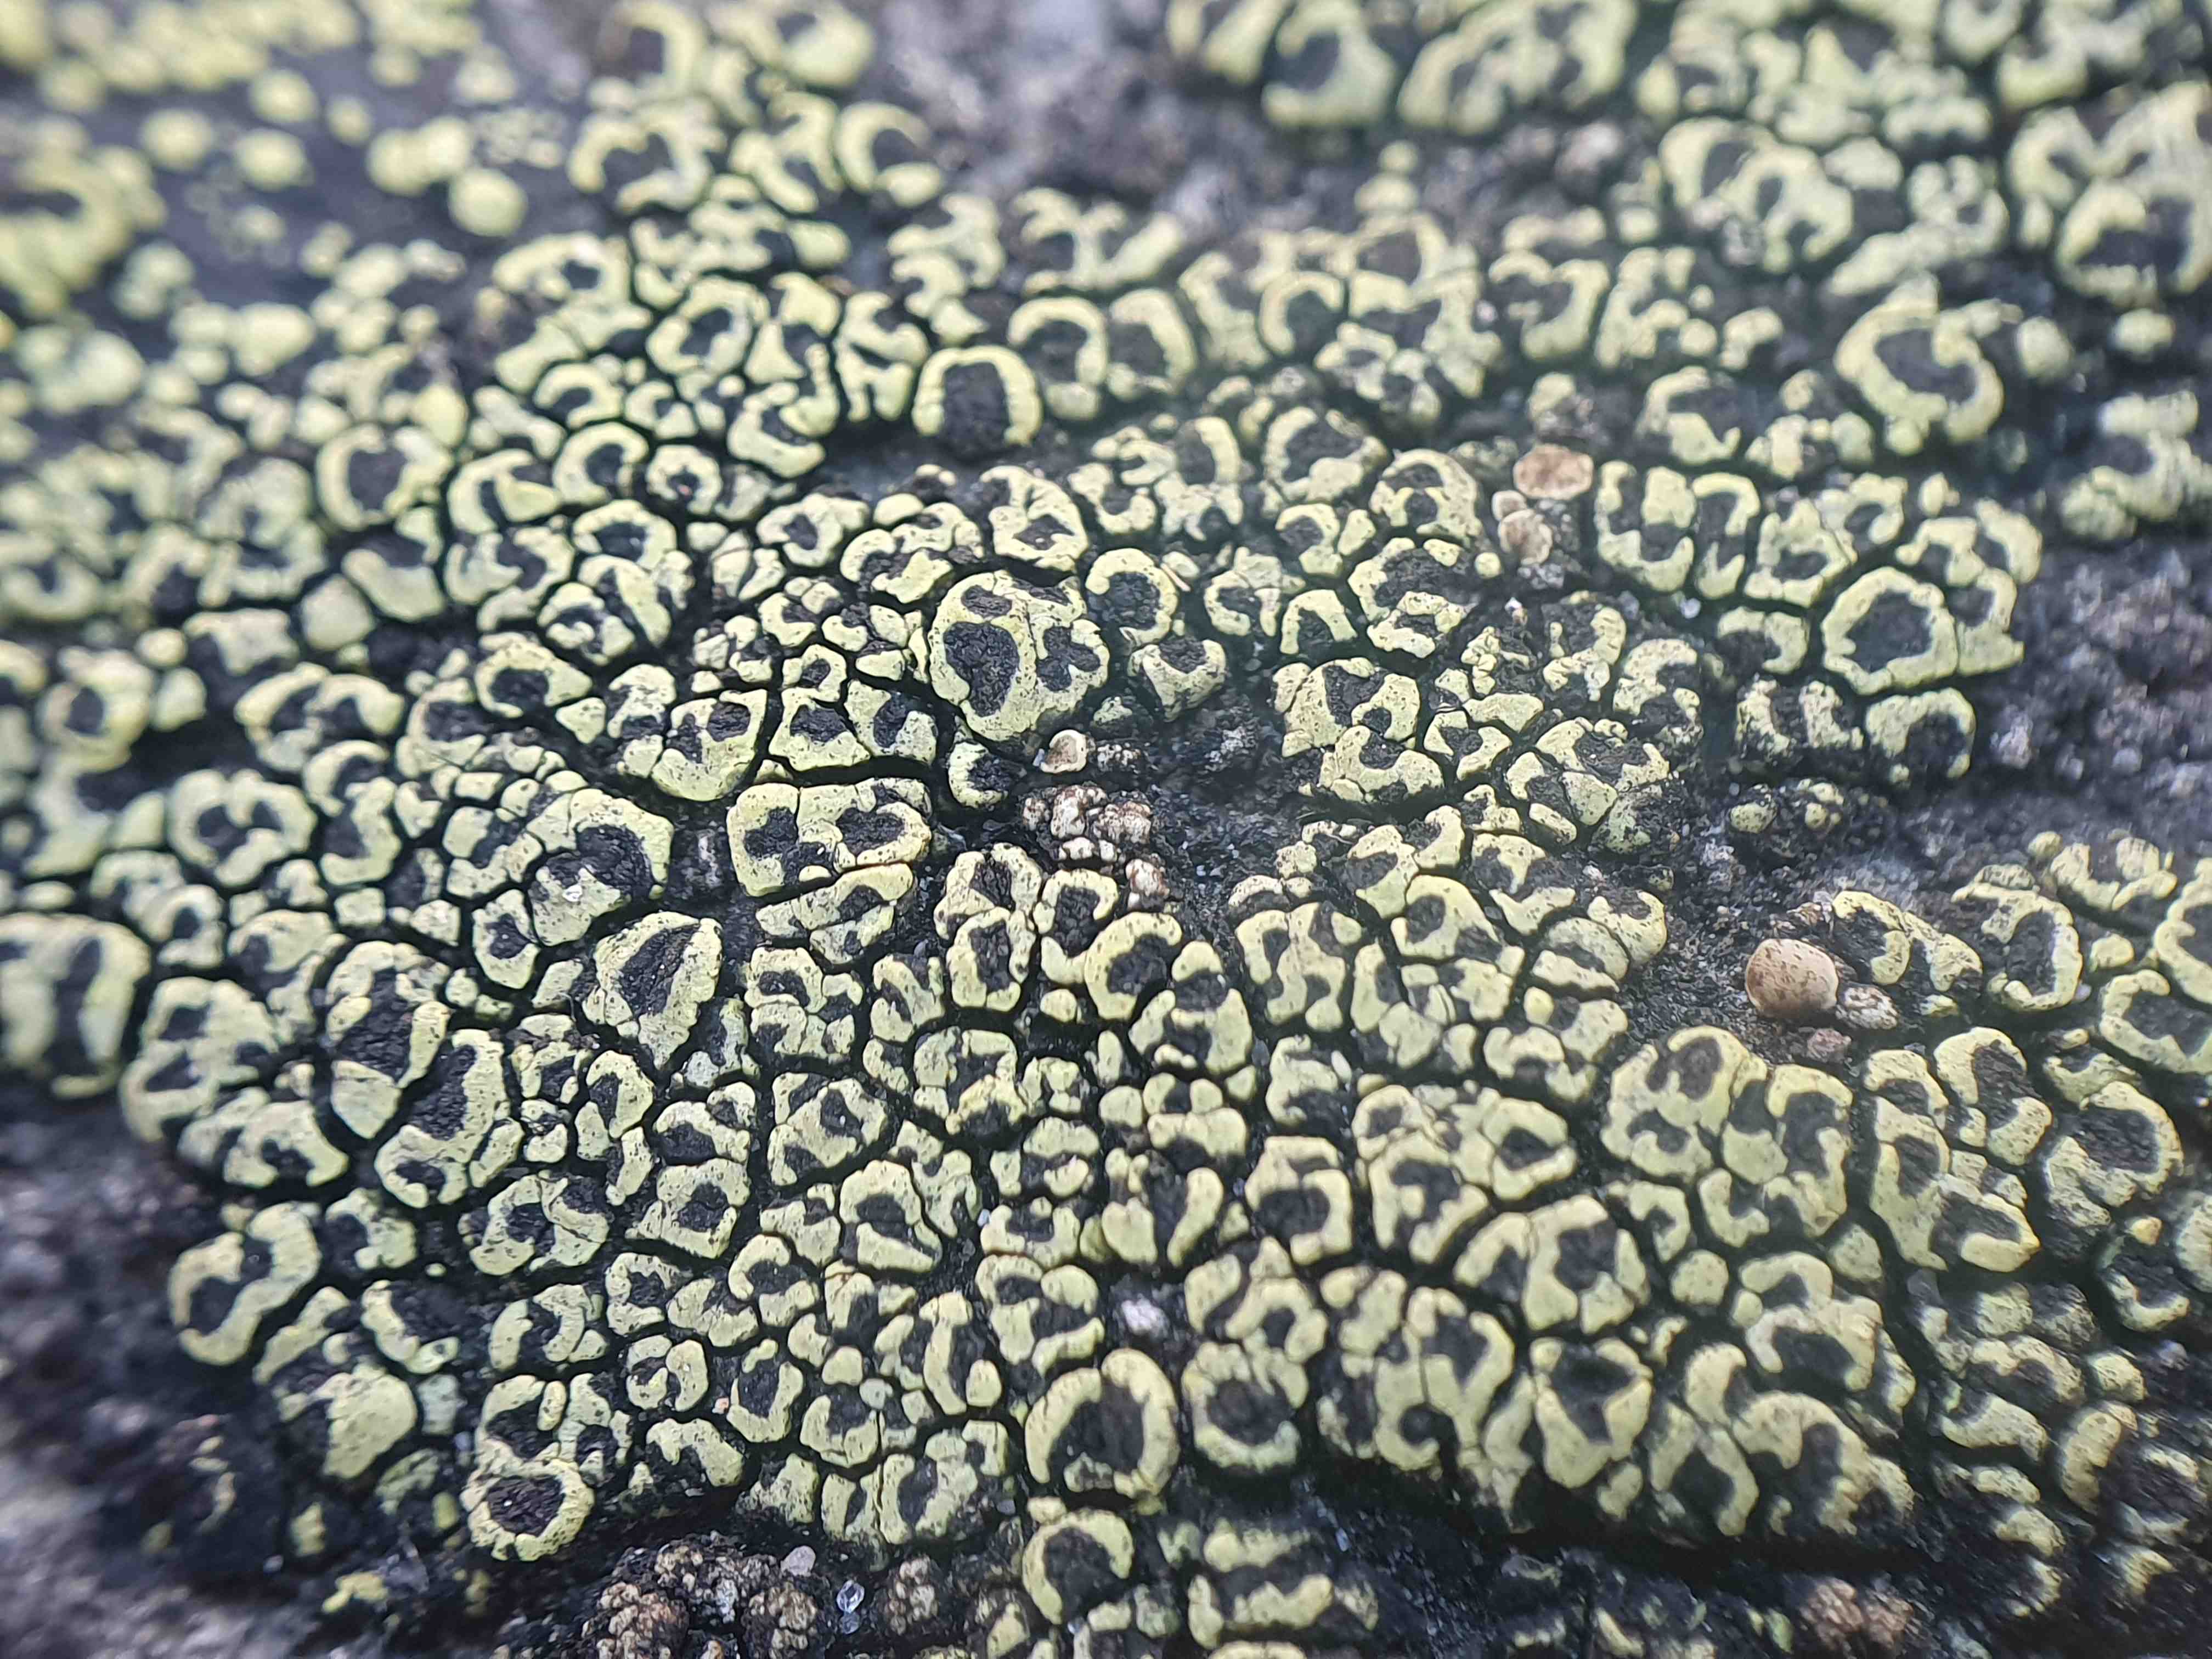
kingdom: Fungi
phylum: Ascomycota
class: Lecanoromycetes
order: Rhizocarpales
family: Rhizocarpaceae
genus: Rhizocarpon
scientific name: Rhizocarpon lecanorinum
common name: krave-landkortlav
